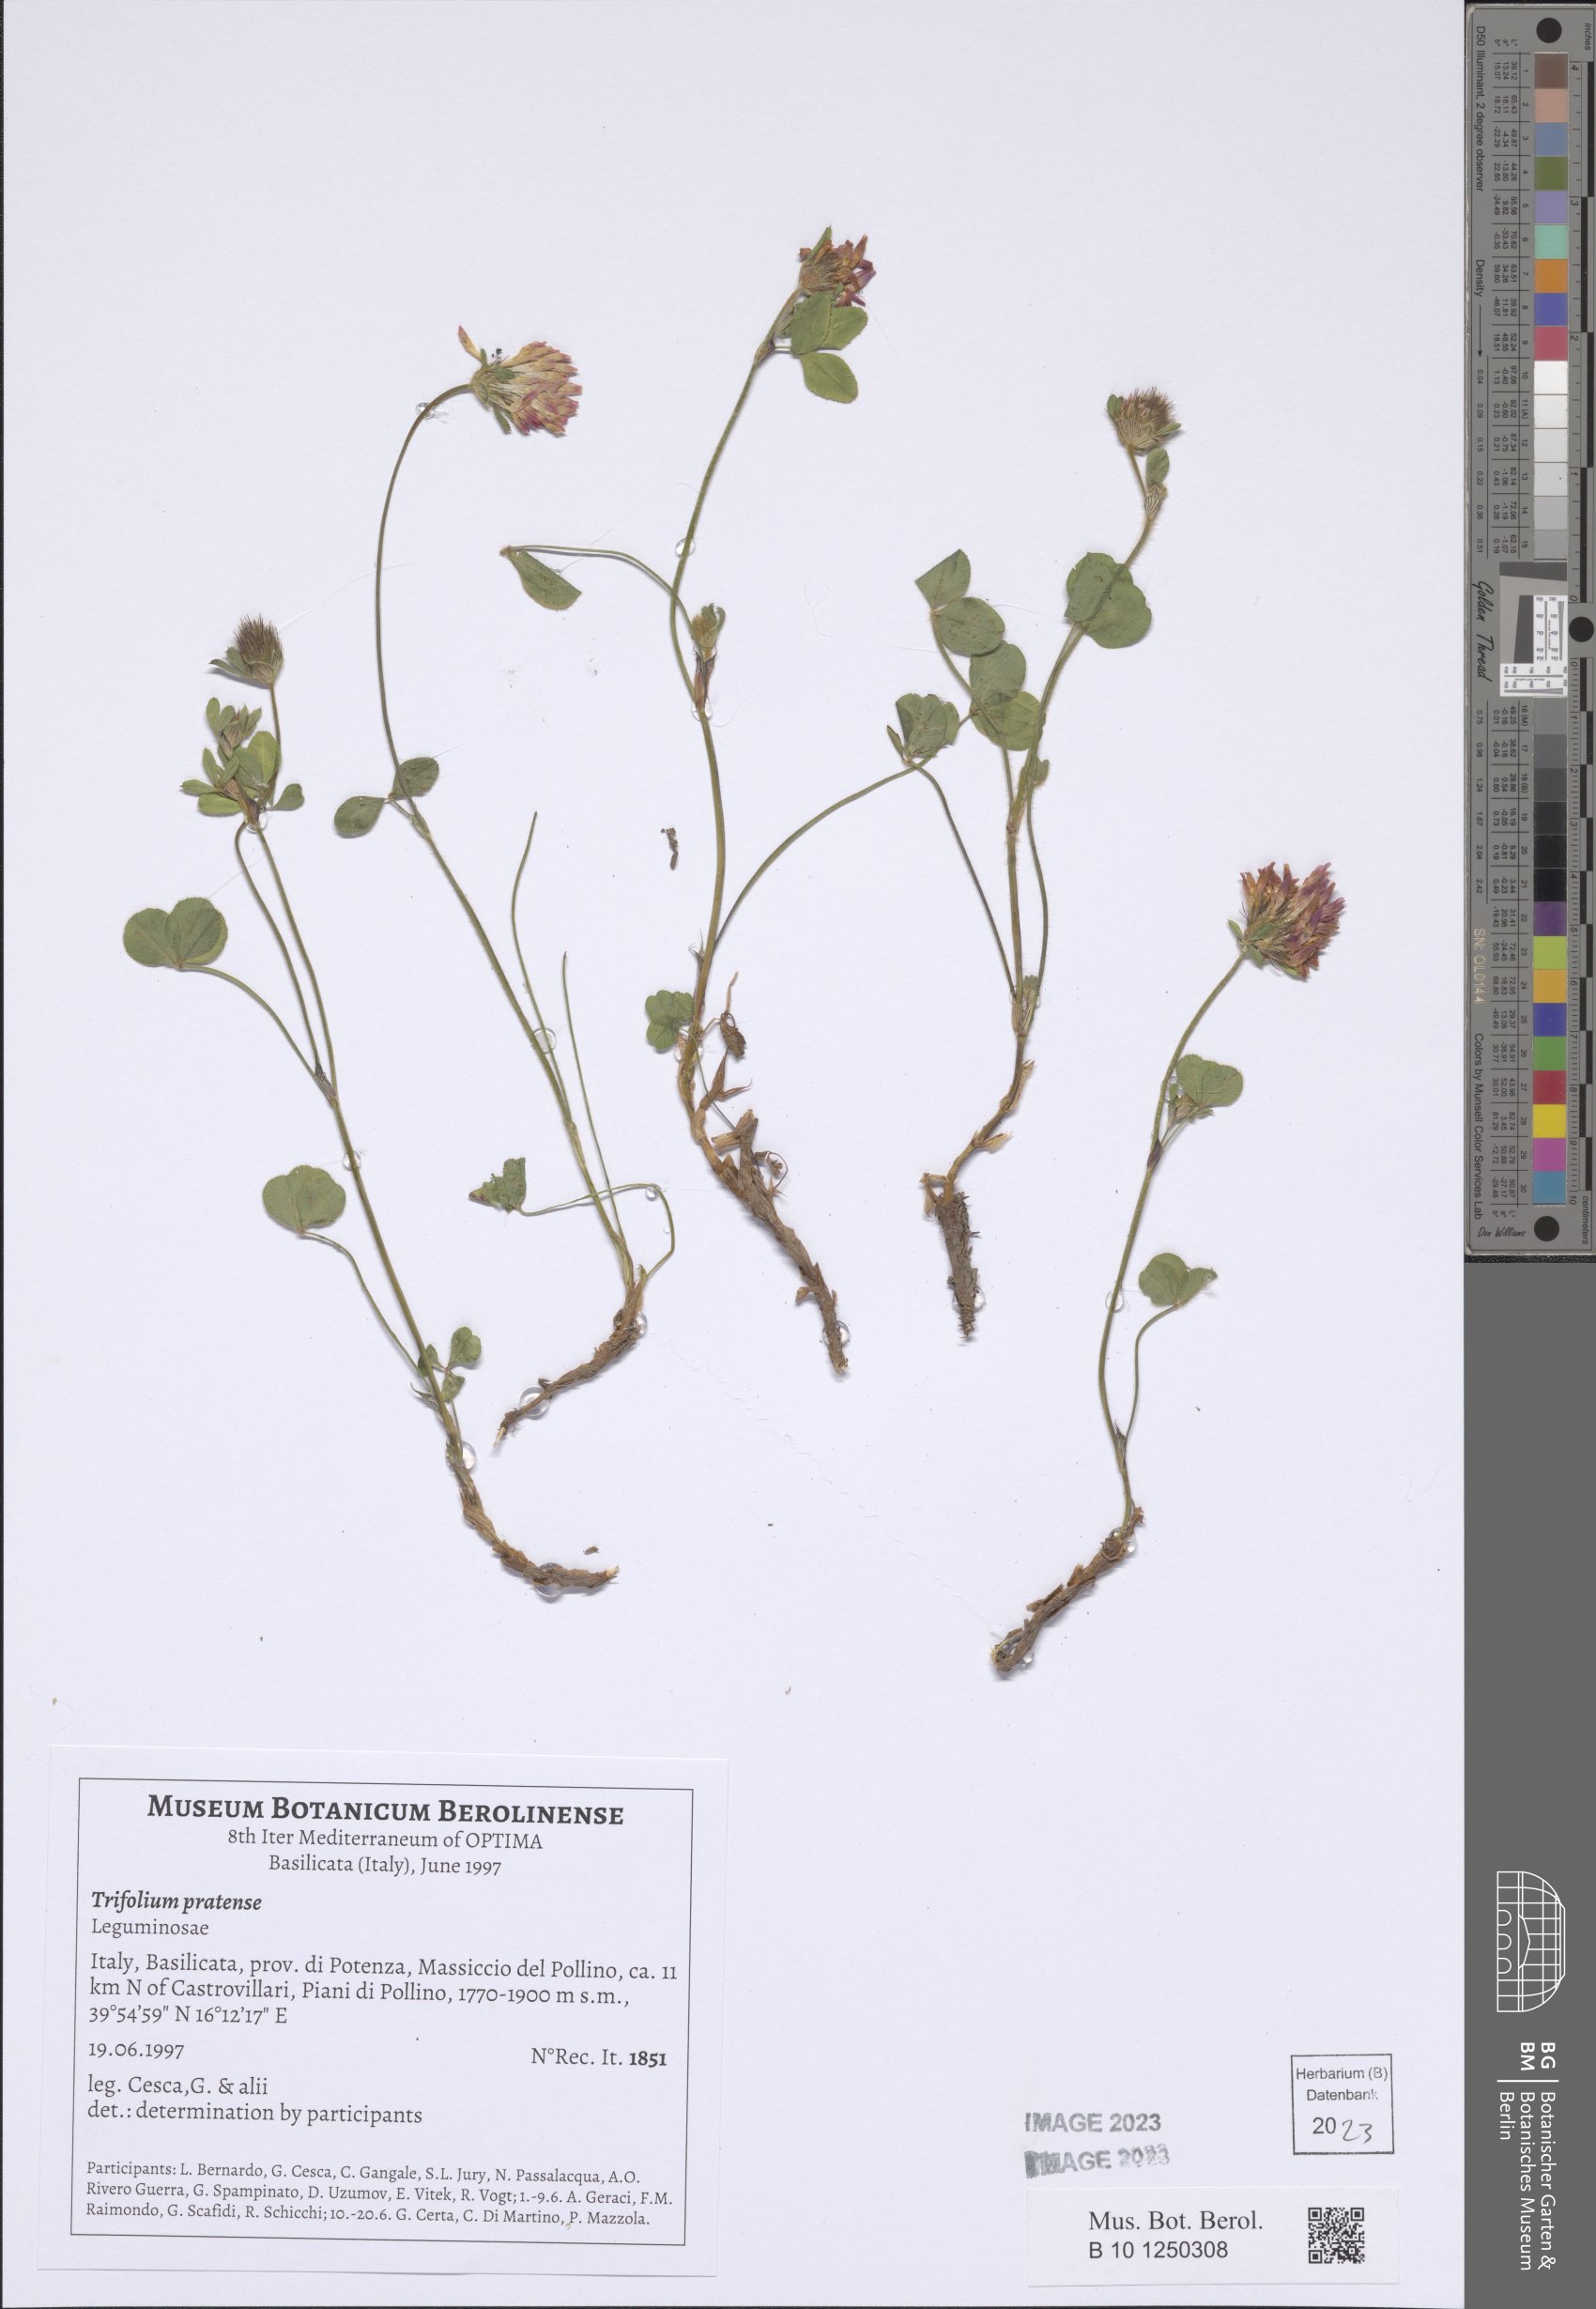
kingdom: Plantae
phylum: Tracheophyta
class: Magnoliopsida
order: Fabales
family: Fabaceae
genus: Trifolium
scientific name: Trifolium pratense
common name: Red clover
